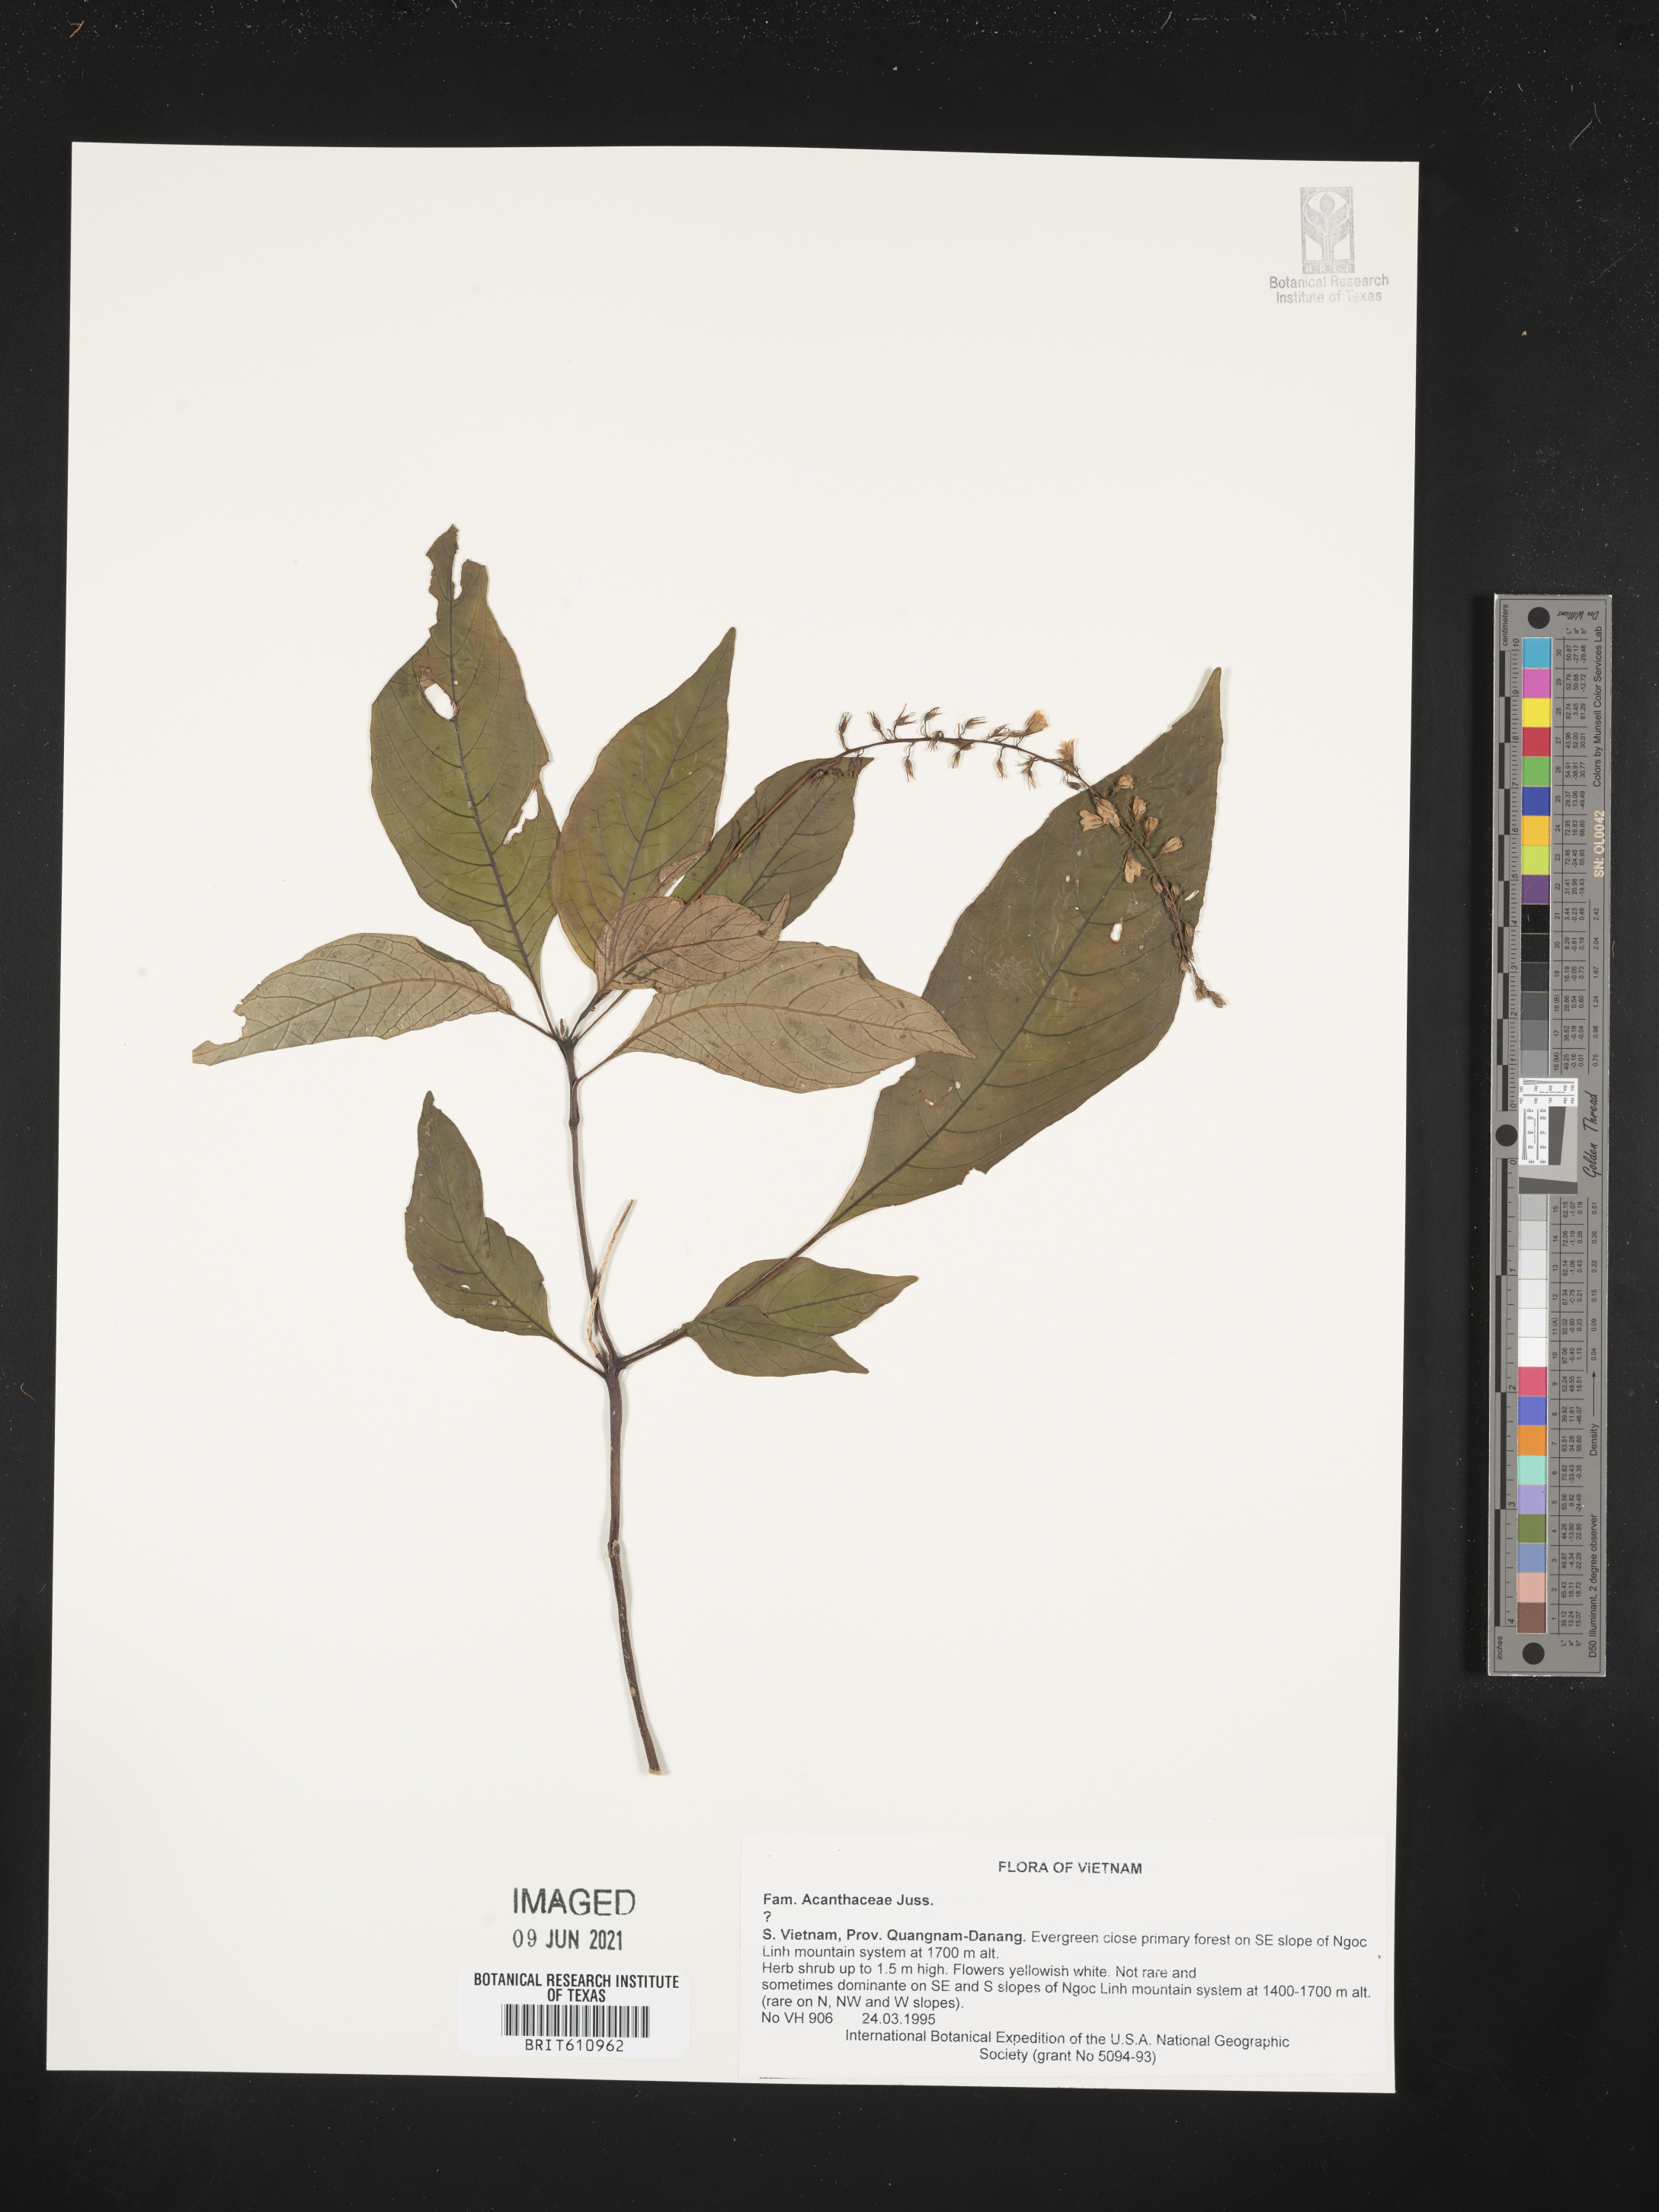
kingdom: Plantae
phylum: Tracheophyta
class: Magnoliopsida
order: Lamiales
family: Acanthaceae
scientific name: Acanthaceae
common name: Acanthaceae
